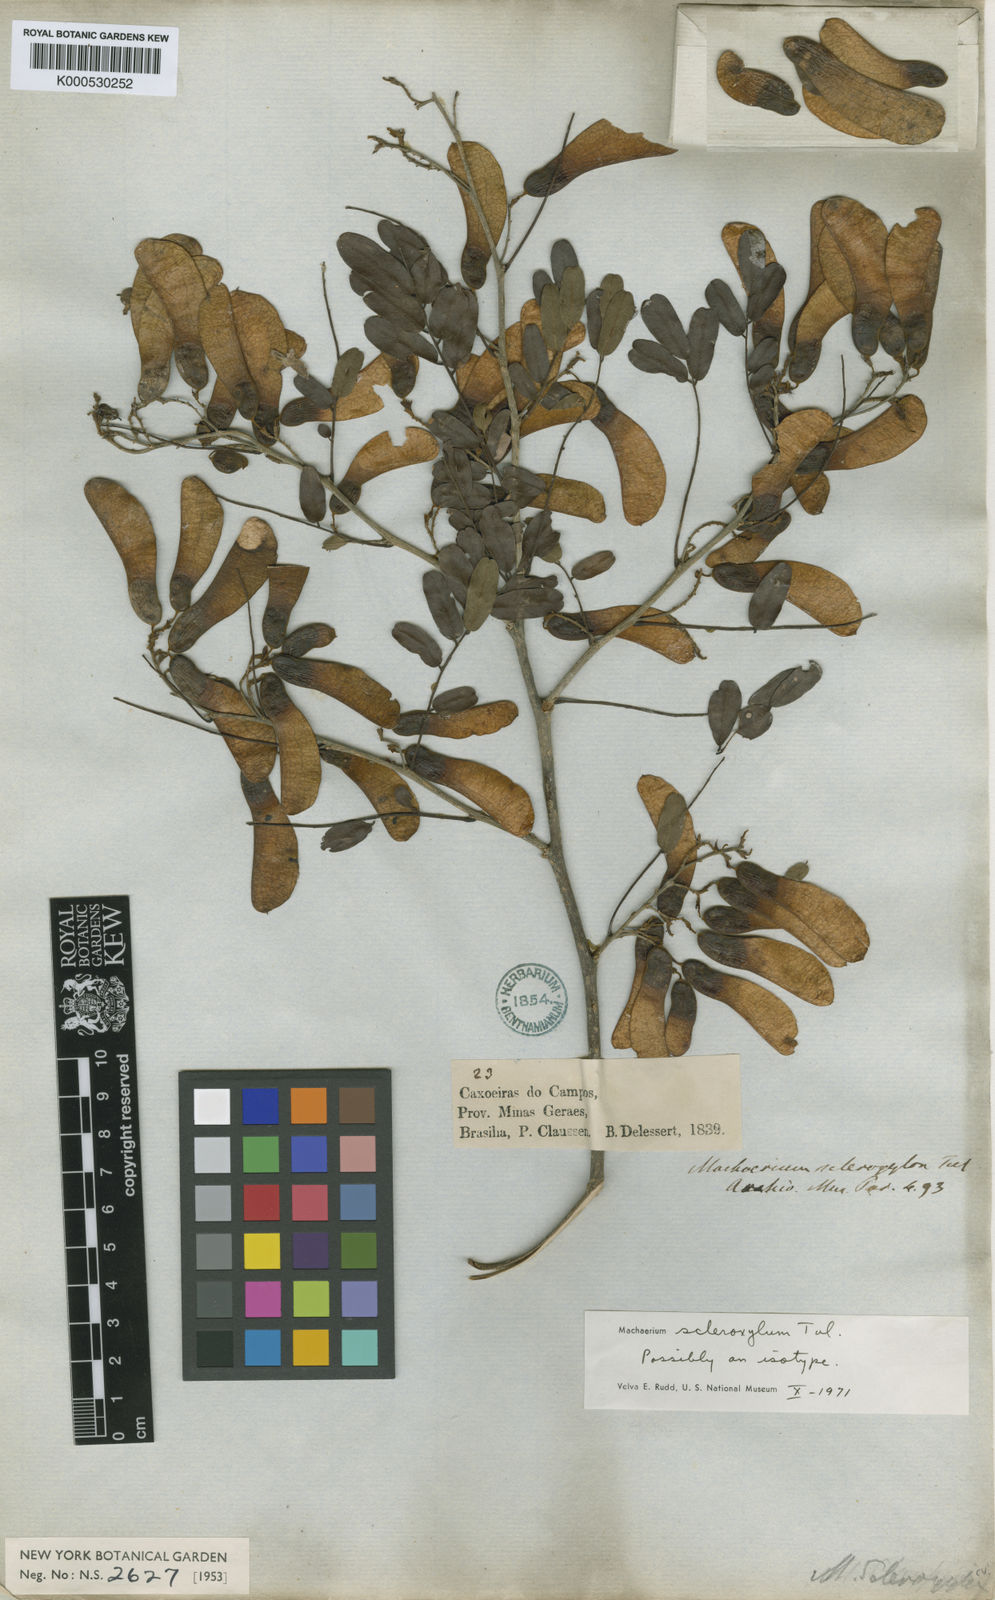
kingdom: Plantae
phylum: Tracheophyta
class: Magnoliopsida
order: Fabales
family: Fabaceae
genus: Machaerium
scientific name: Machaerium scleroxylon
